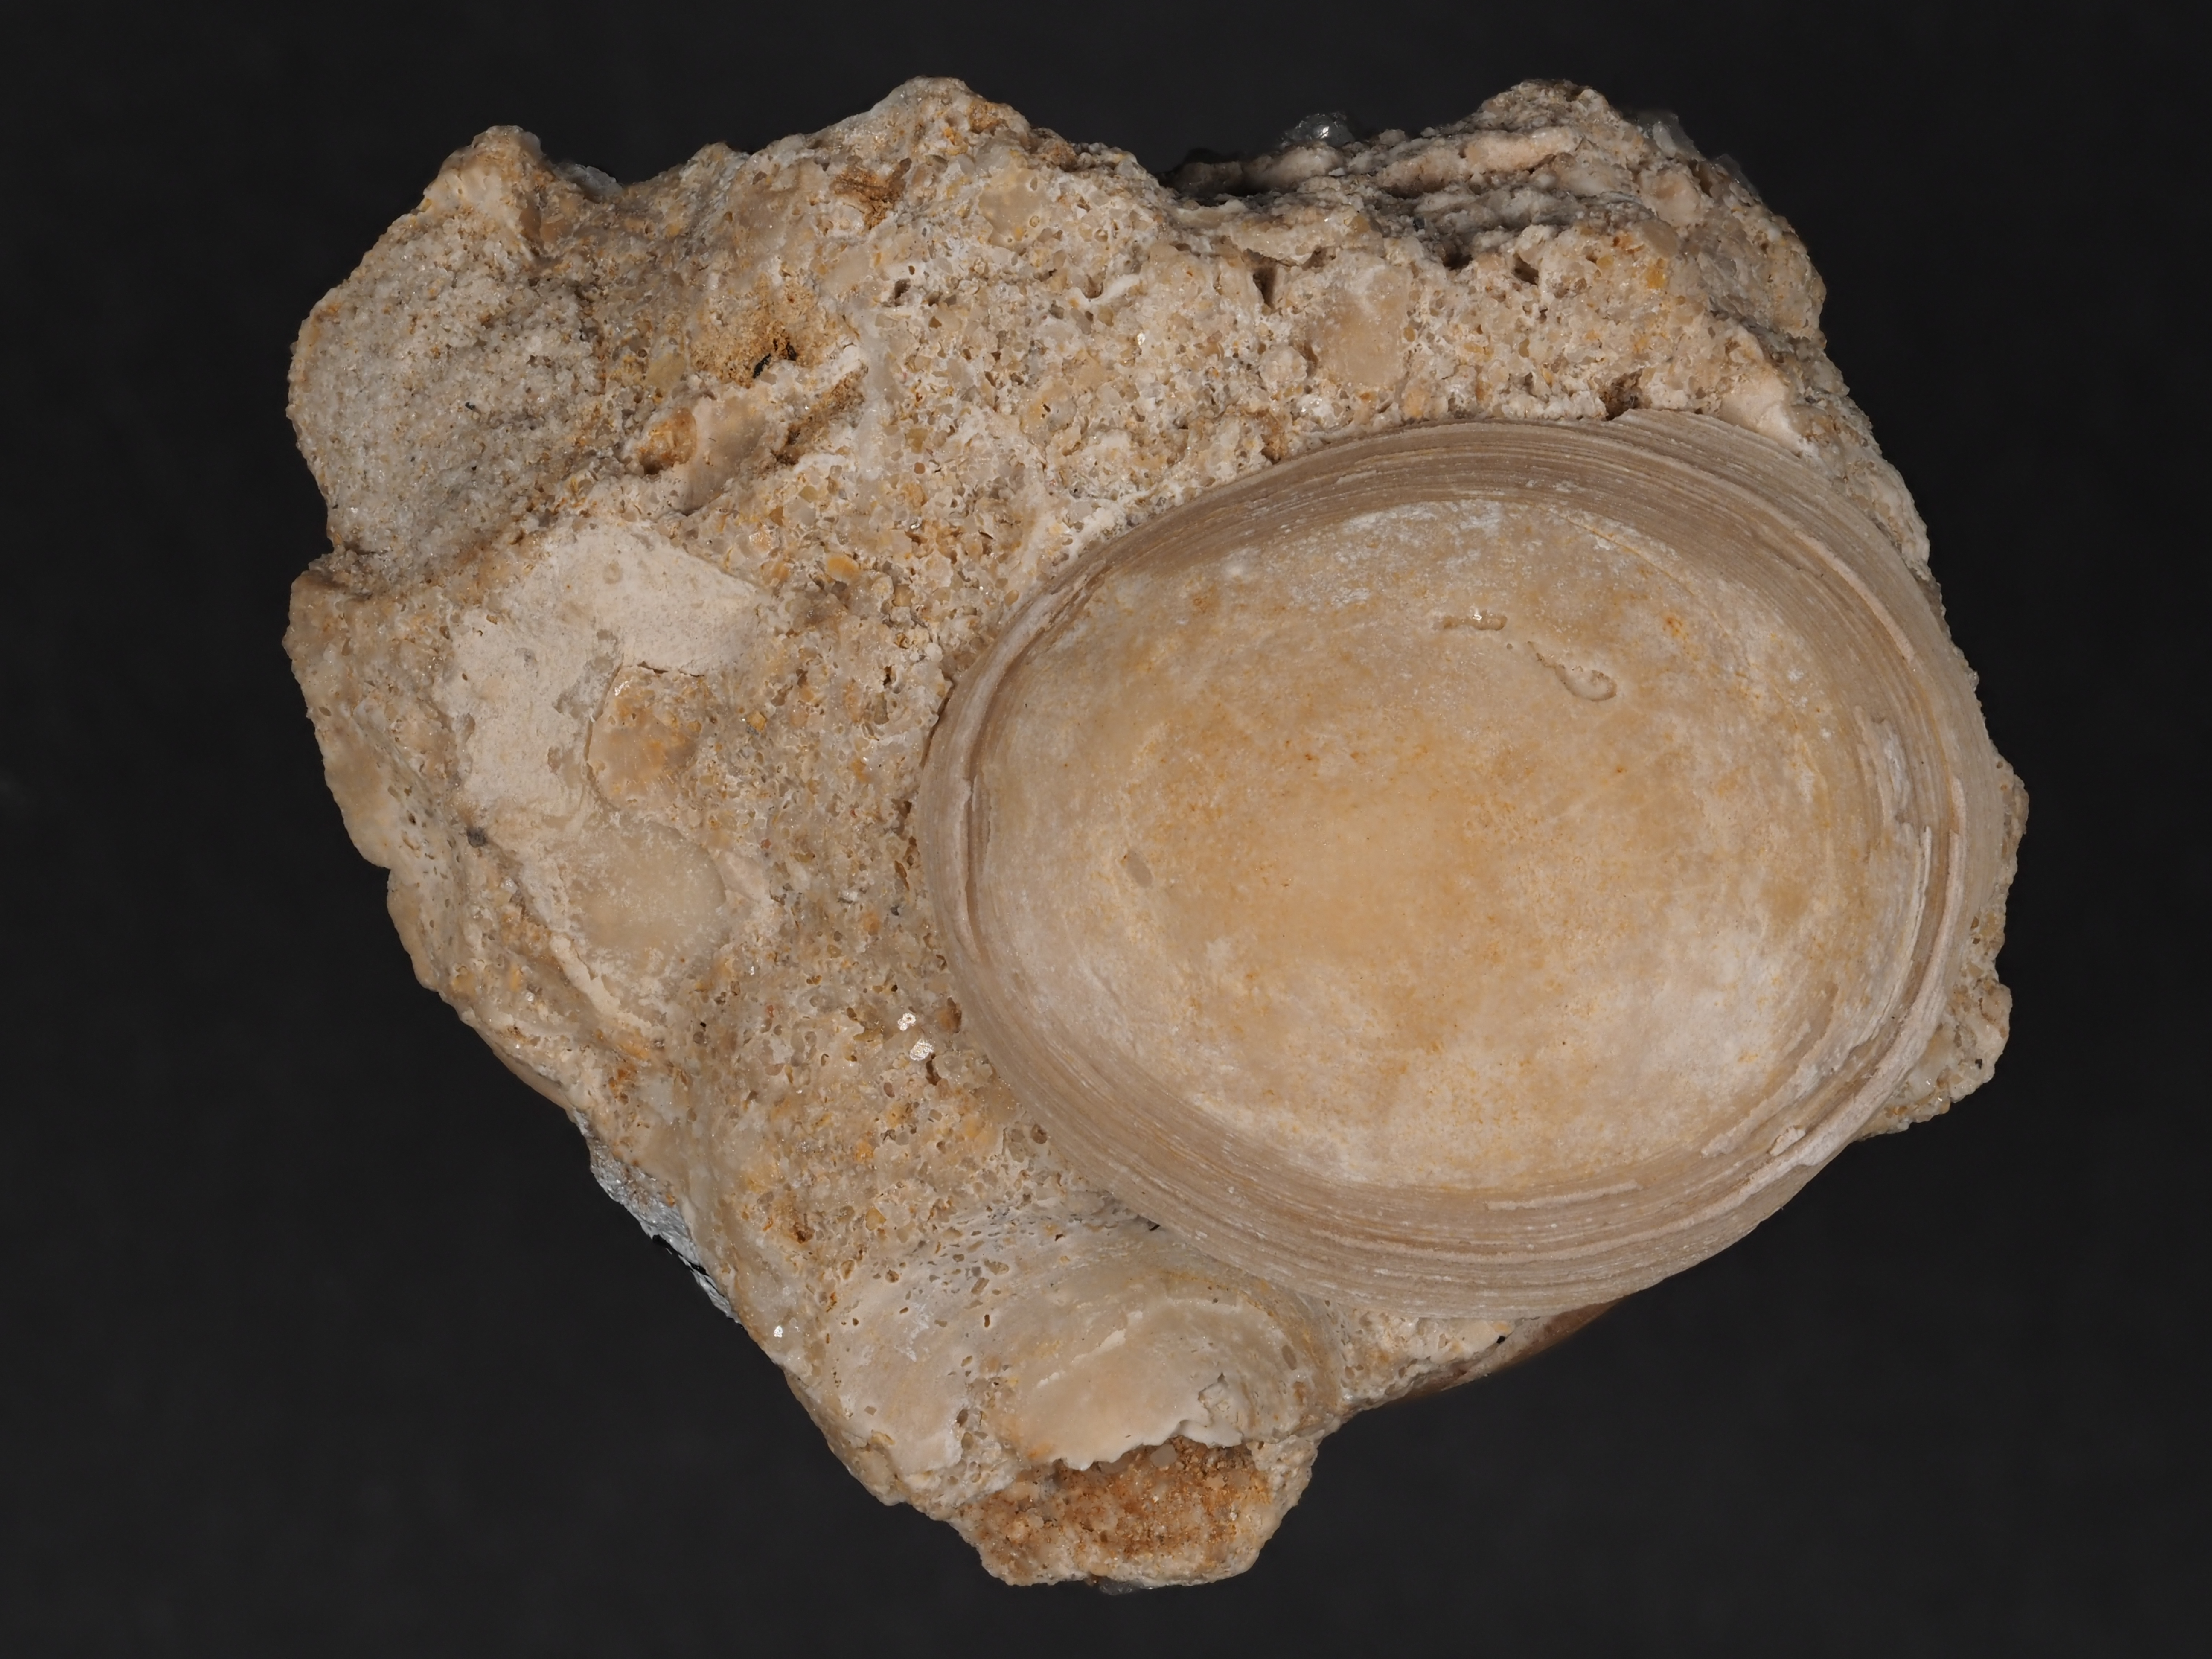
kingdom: Animalia
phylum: Mollusca
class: Gastropoda
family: Acmaeadae
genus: Scurriopsis
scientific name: Scurriopsis
